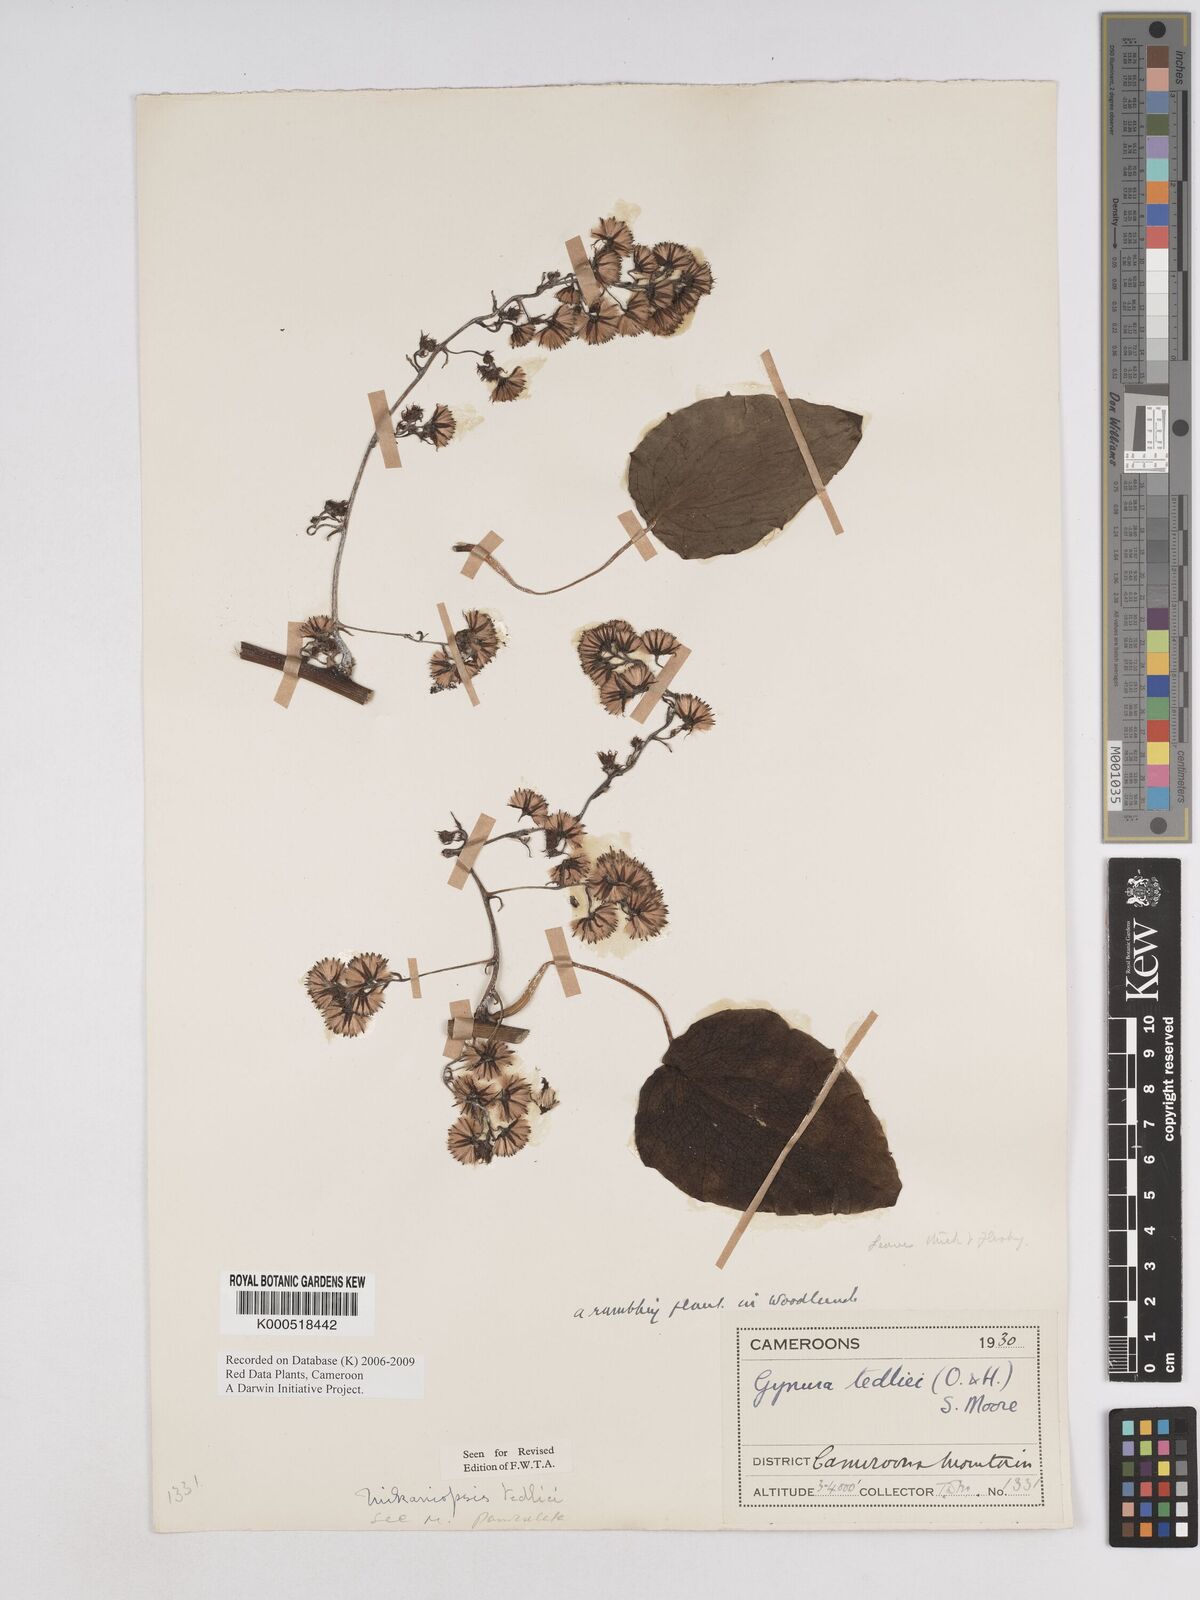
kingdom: Plantae
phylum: Tracheophyta
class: Magnoliopsida
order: Asterales
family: Asteraceae
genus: Mikaniopsis
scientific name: Mikaniopsis tedliei
